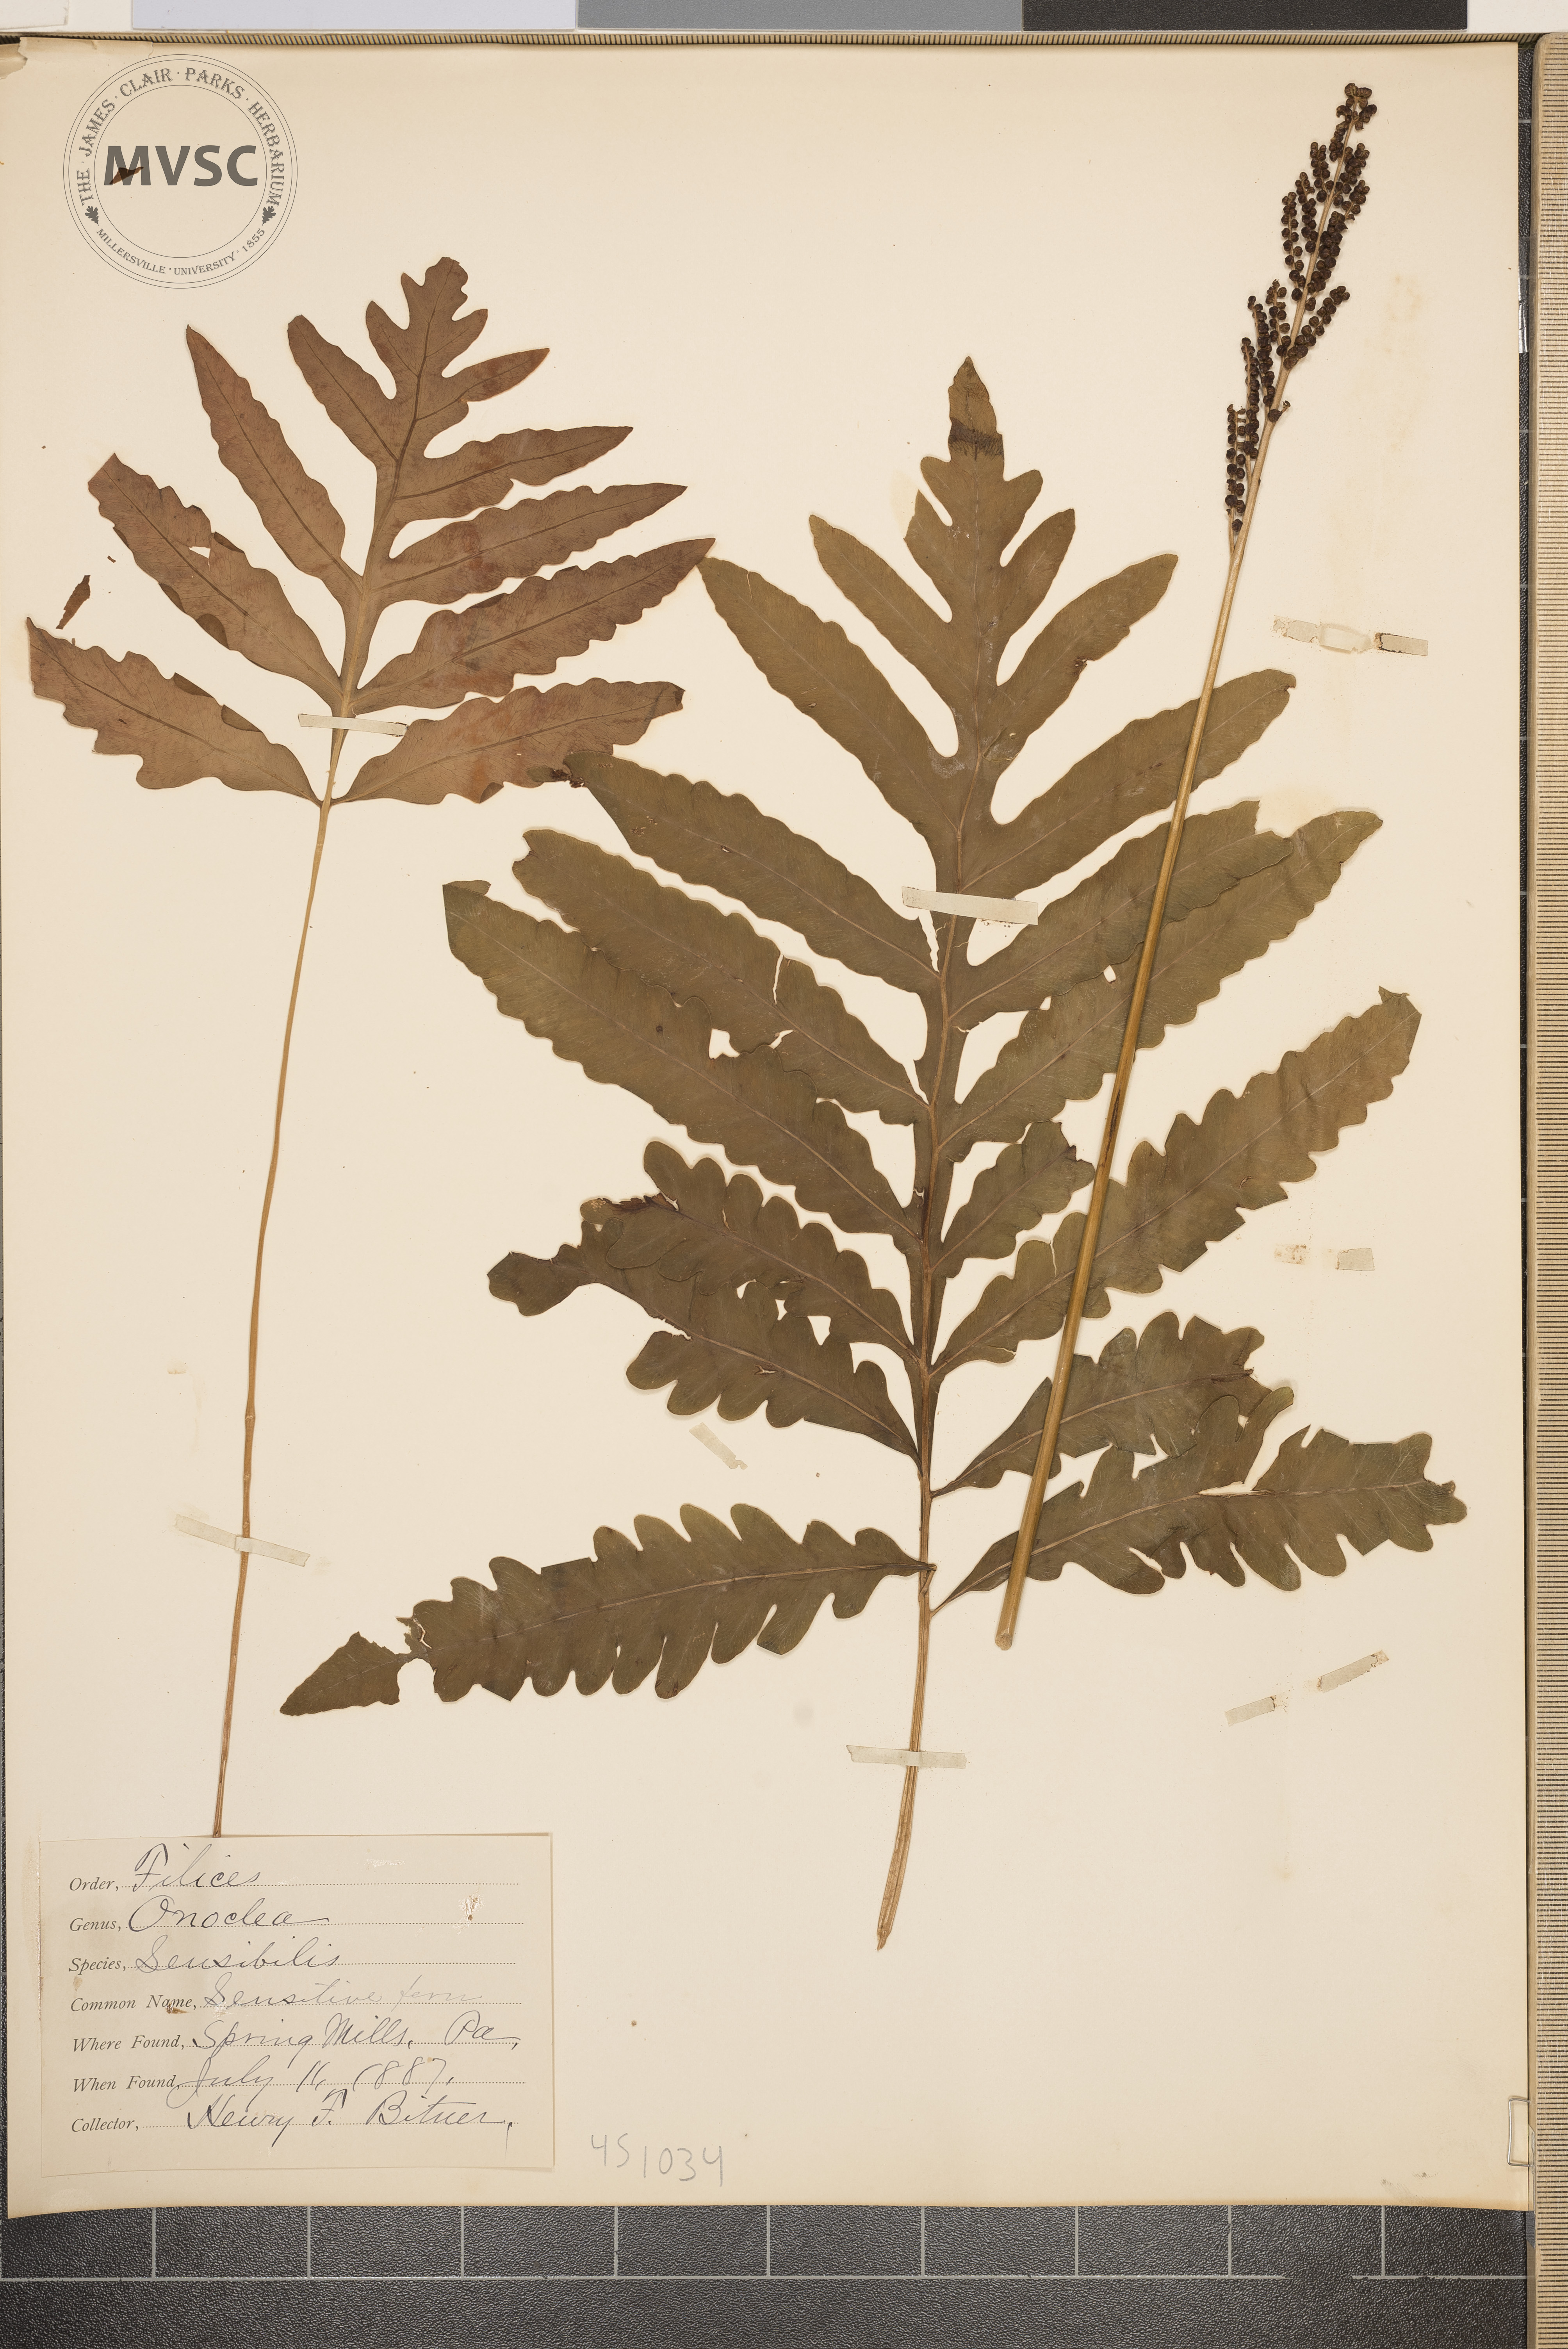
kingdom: Plantae
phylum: Tracheophyta
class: Polypodiopsida
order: Polypodiales
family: Onocleaceae
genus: Onoclea
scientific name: Onoclea sensibilis
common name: Sensitive Fern
